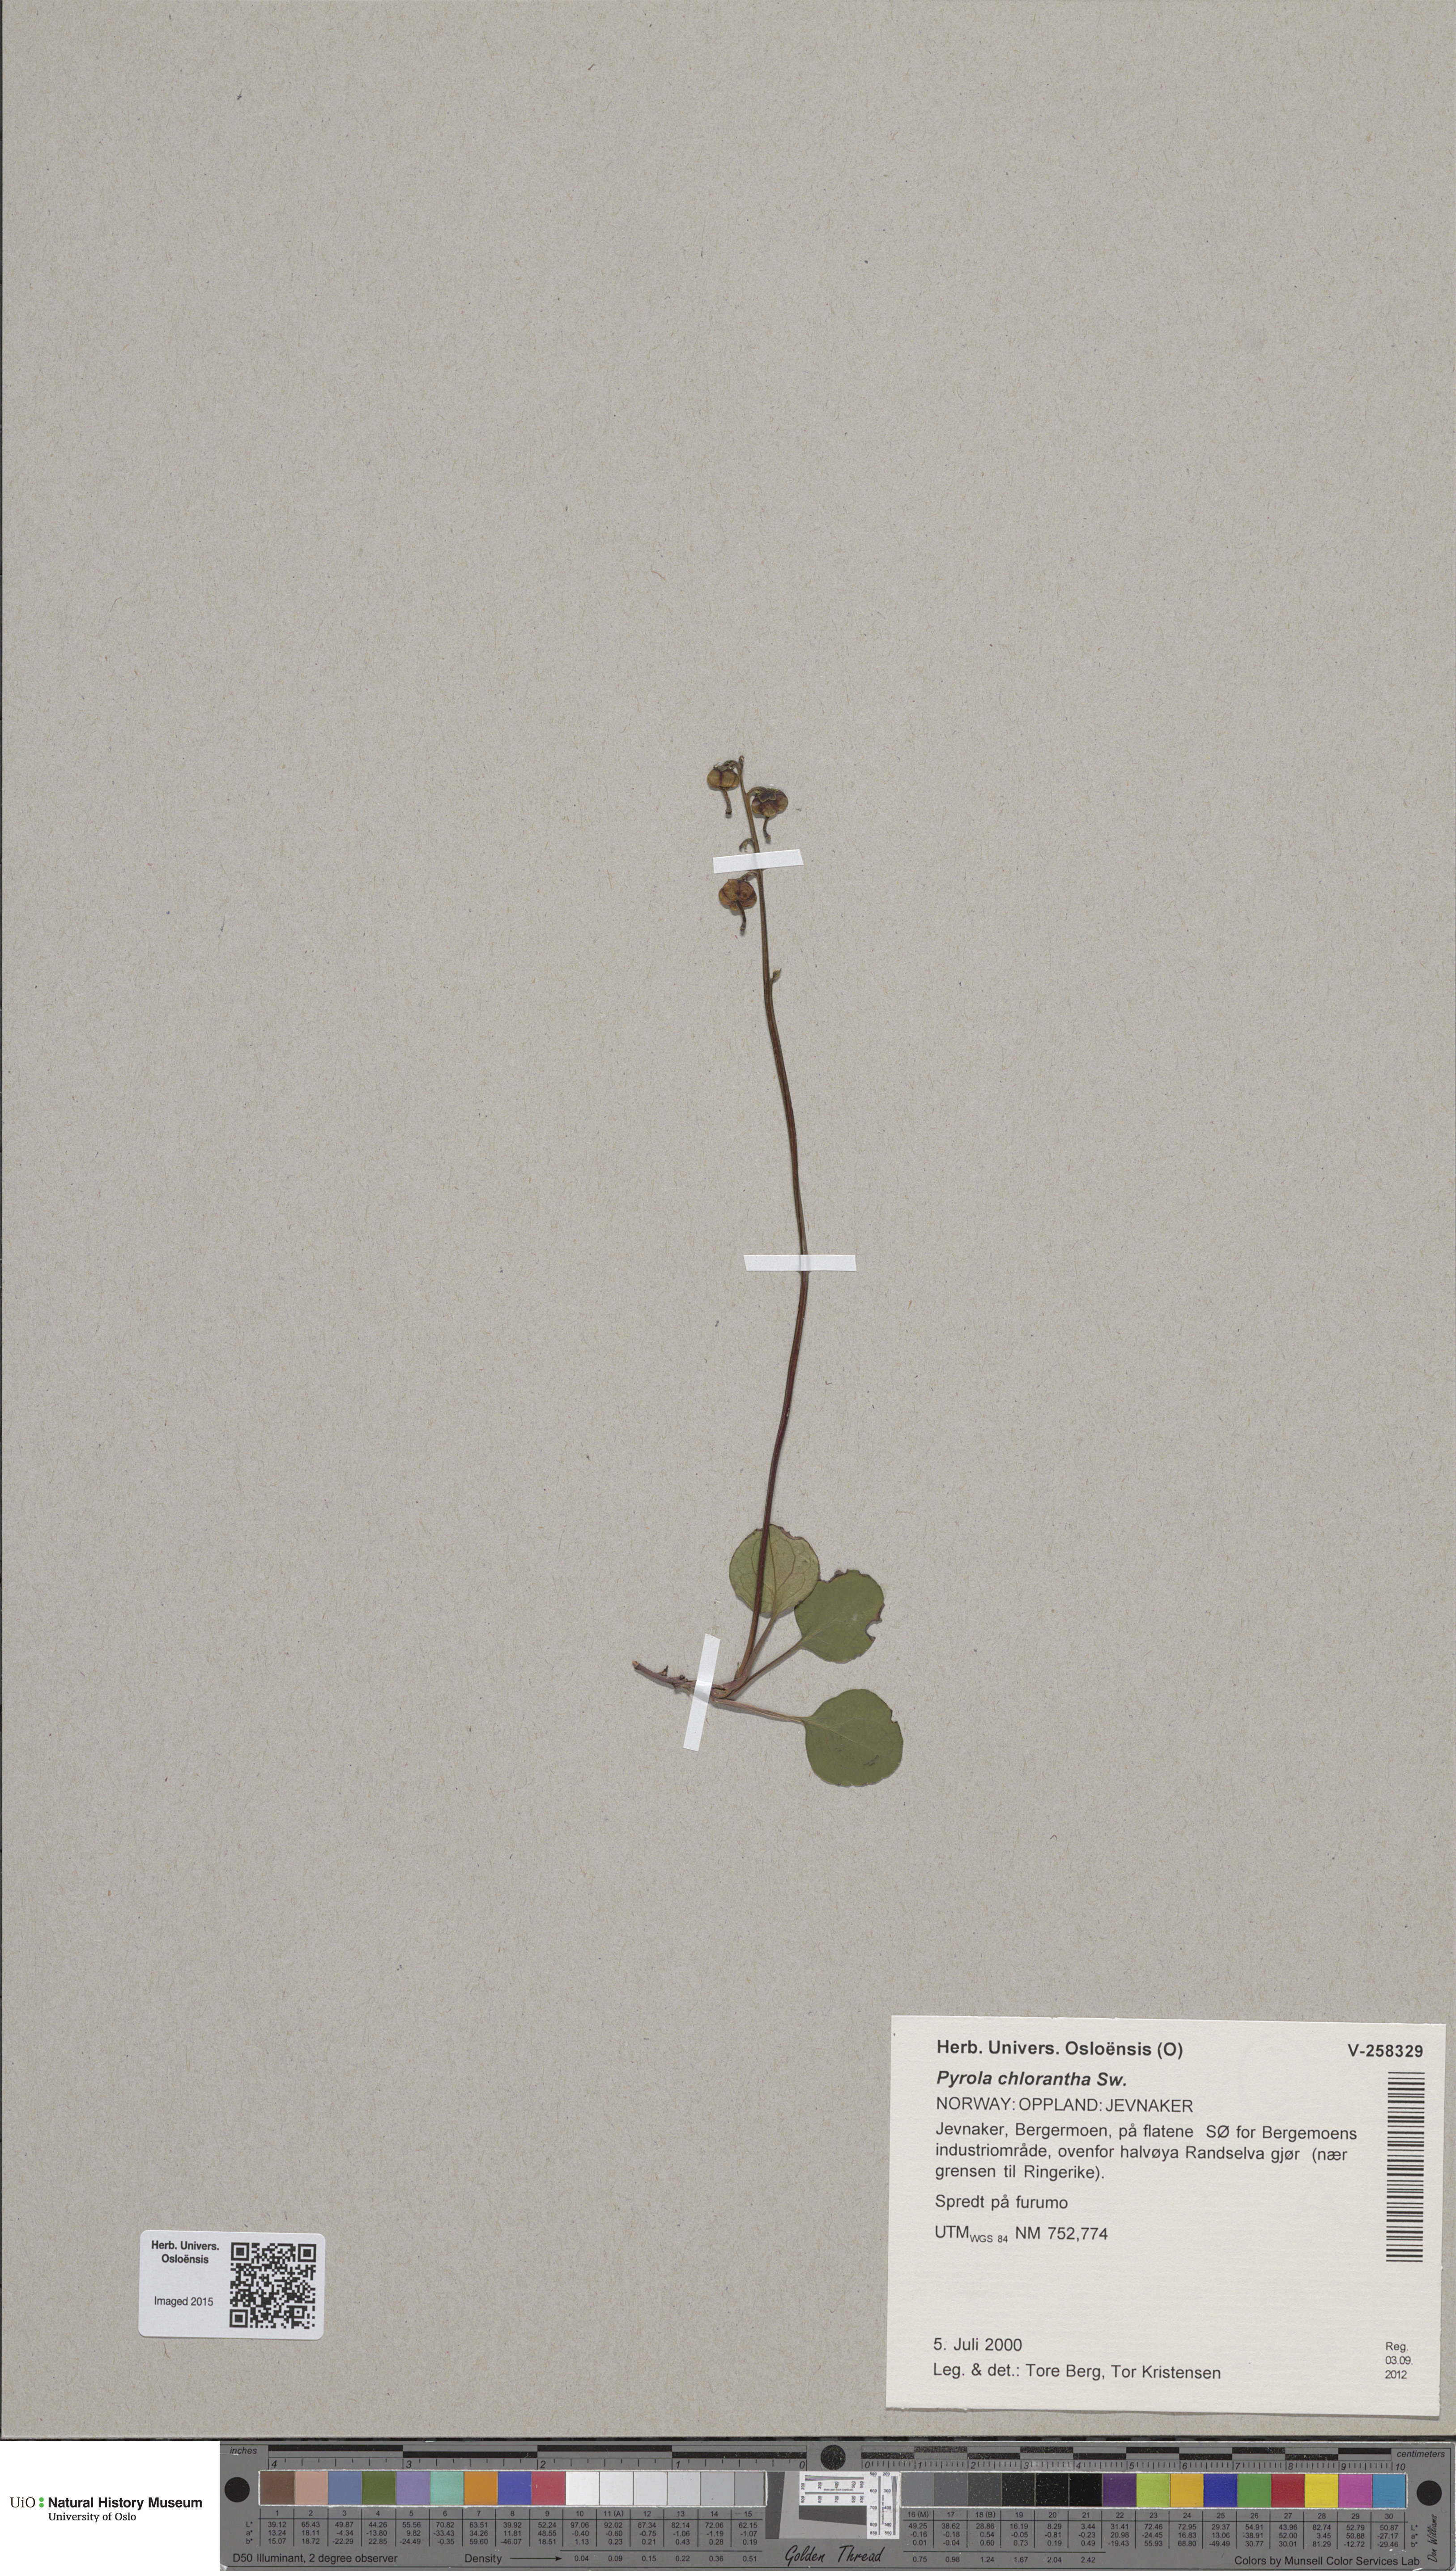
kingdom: Plantae
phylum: Tracheophyta
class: Magnoliopsida
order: Ericales
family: Ericaceae
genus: Pyrola
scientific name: Pyrola chlorantha
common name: Green wintergreen
